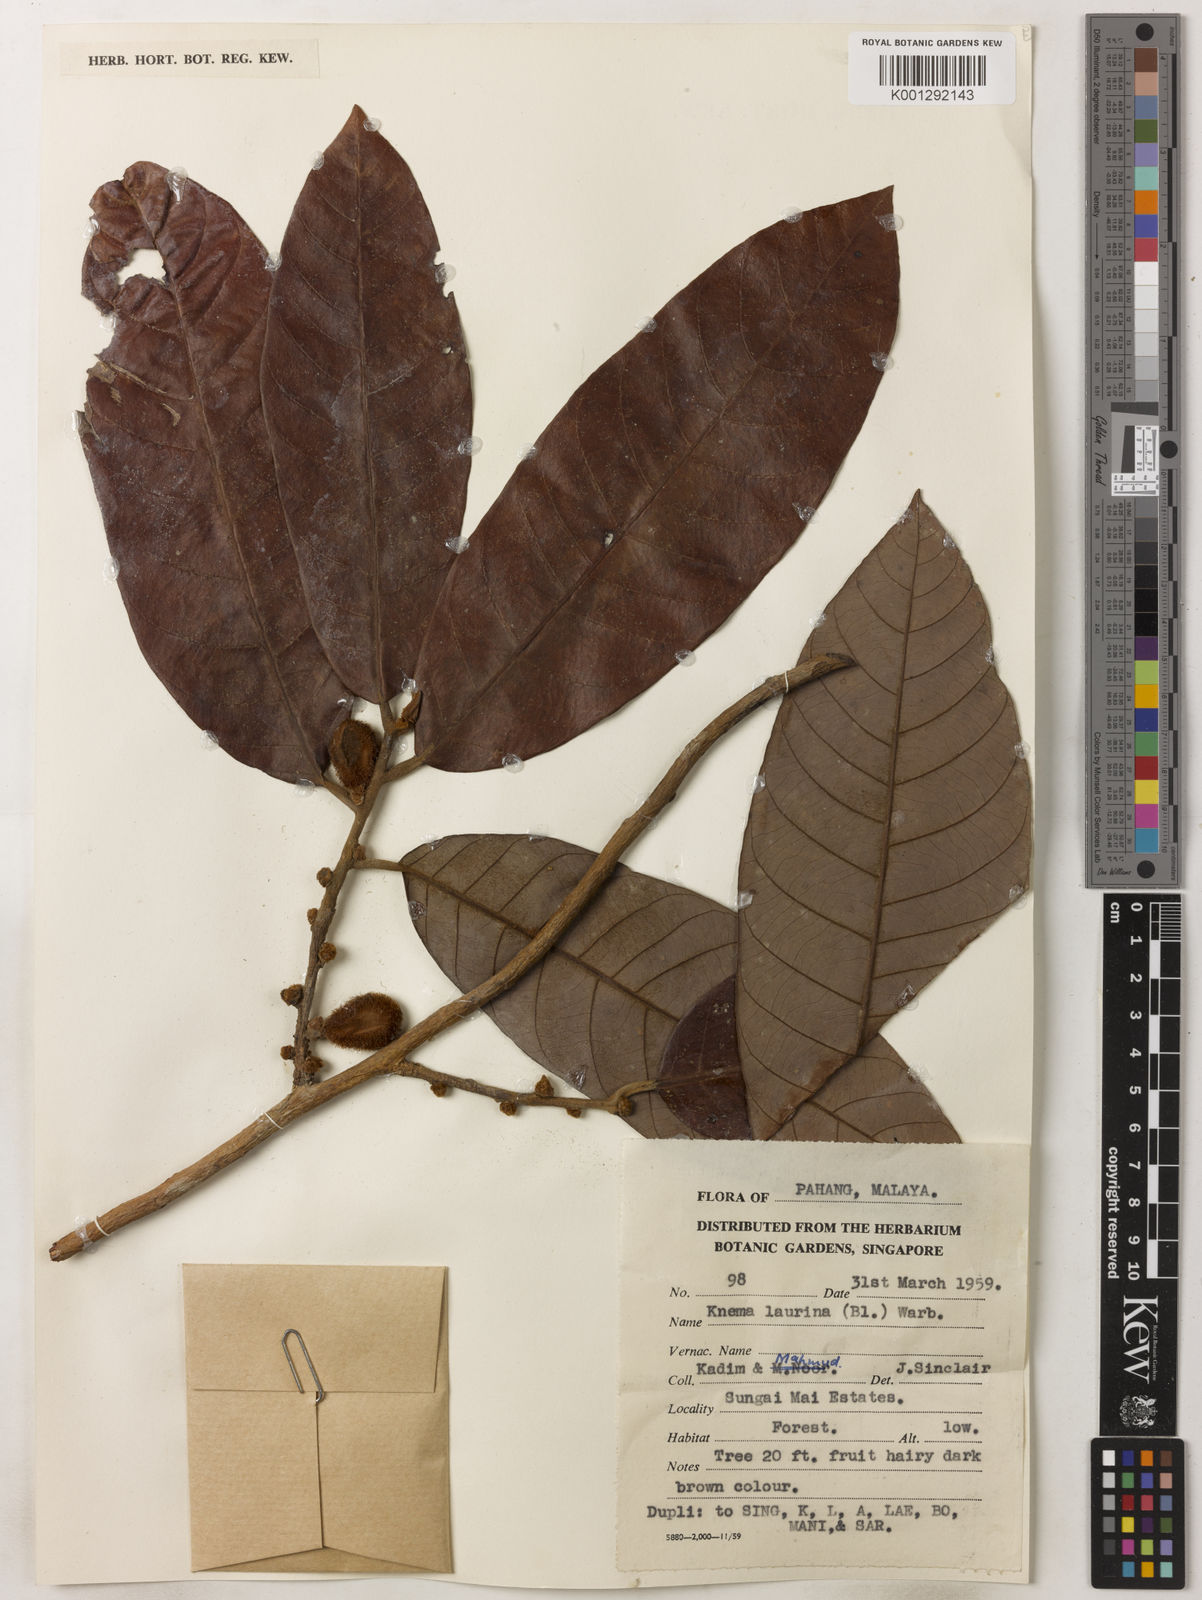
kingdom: Plantae
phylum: Tracheophyta
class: Magnoliopsida
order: Magnoliales
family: Myristicaceae
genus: Knema
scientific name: Knema laurina
